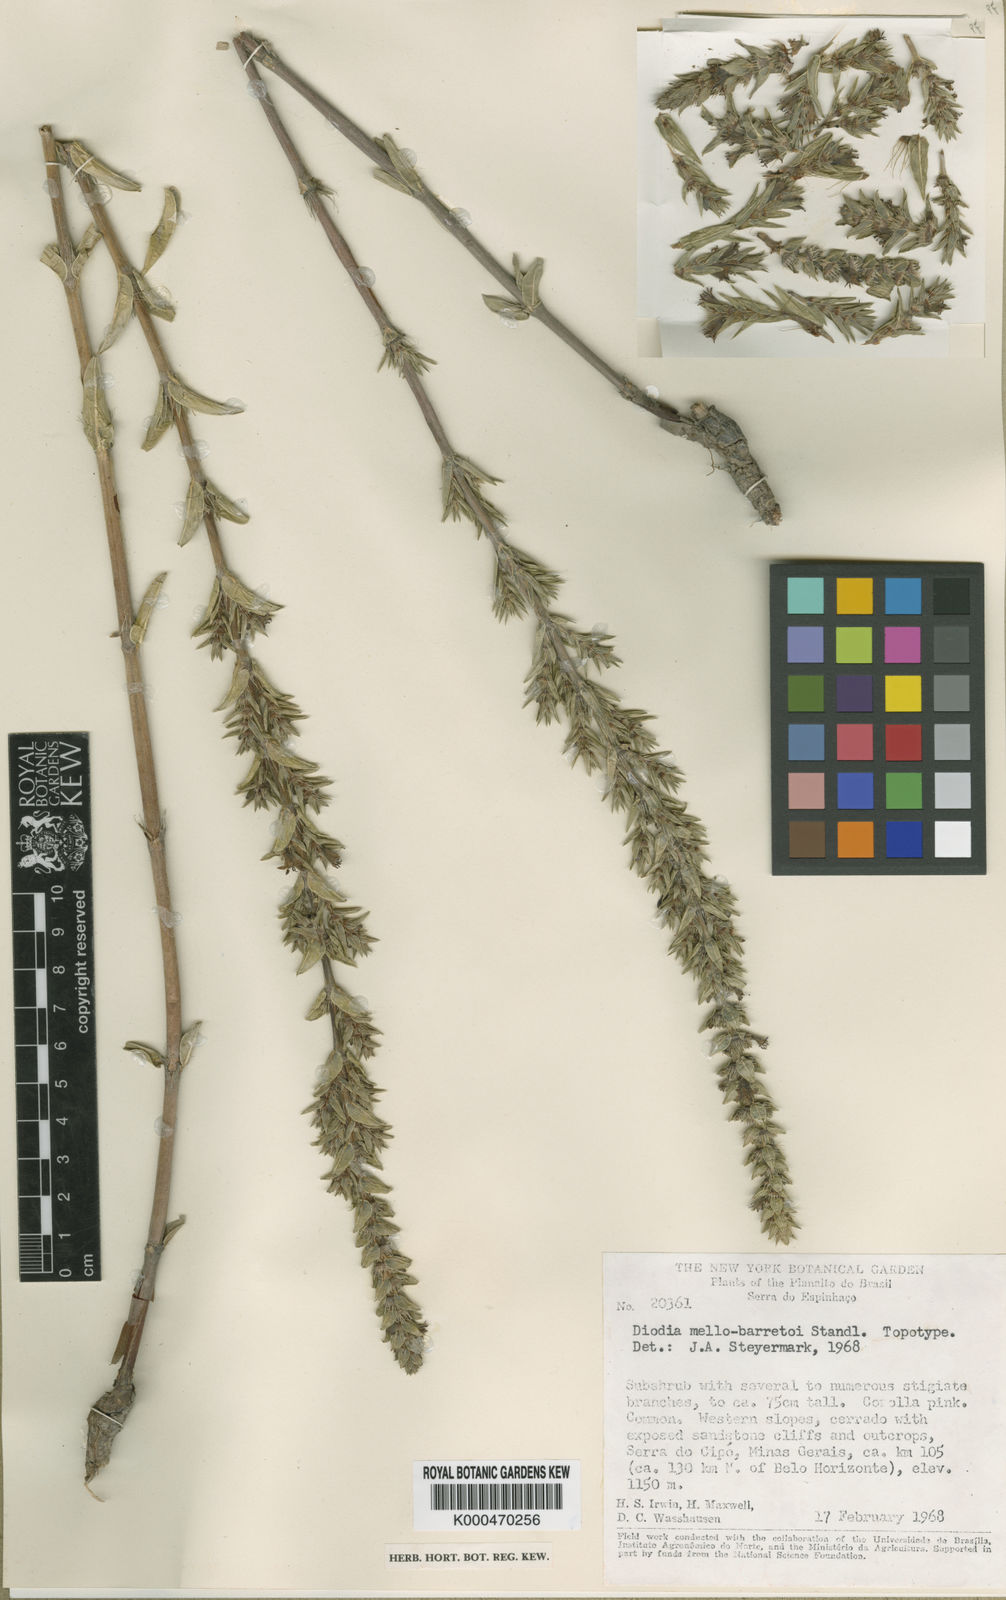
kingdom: Plantae
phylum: Tracheophyta
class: Magnoliopsida
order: Gentianales
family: Rubiaceae
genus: Hexasepalum
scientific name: Hexasepalum mello-barretoi
